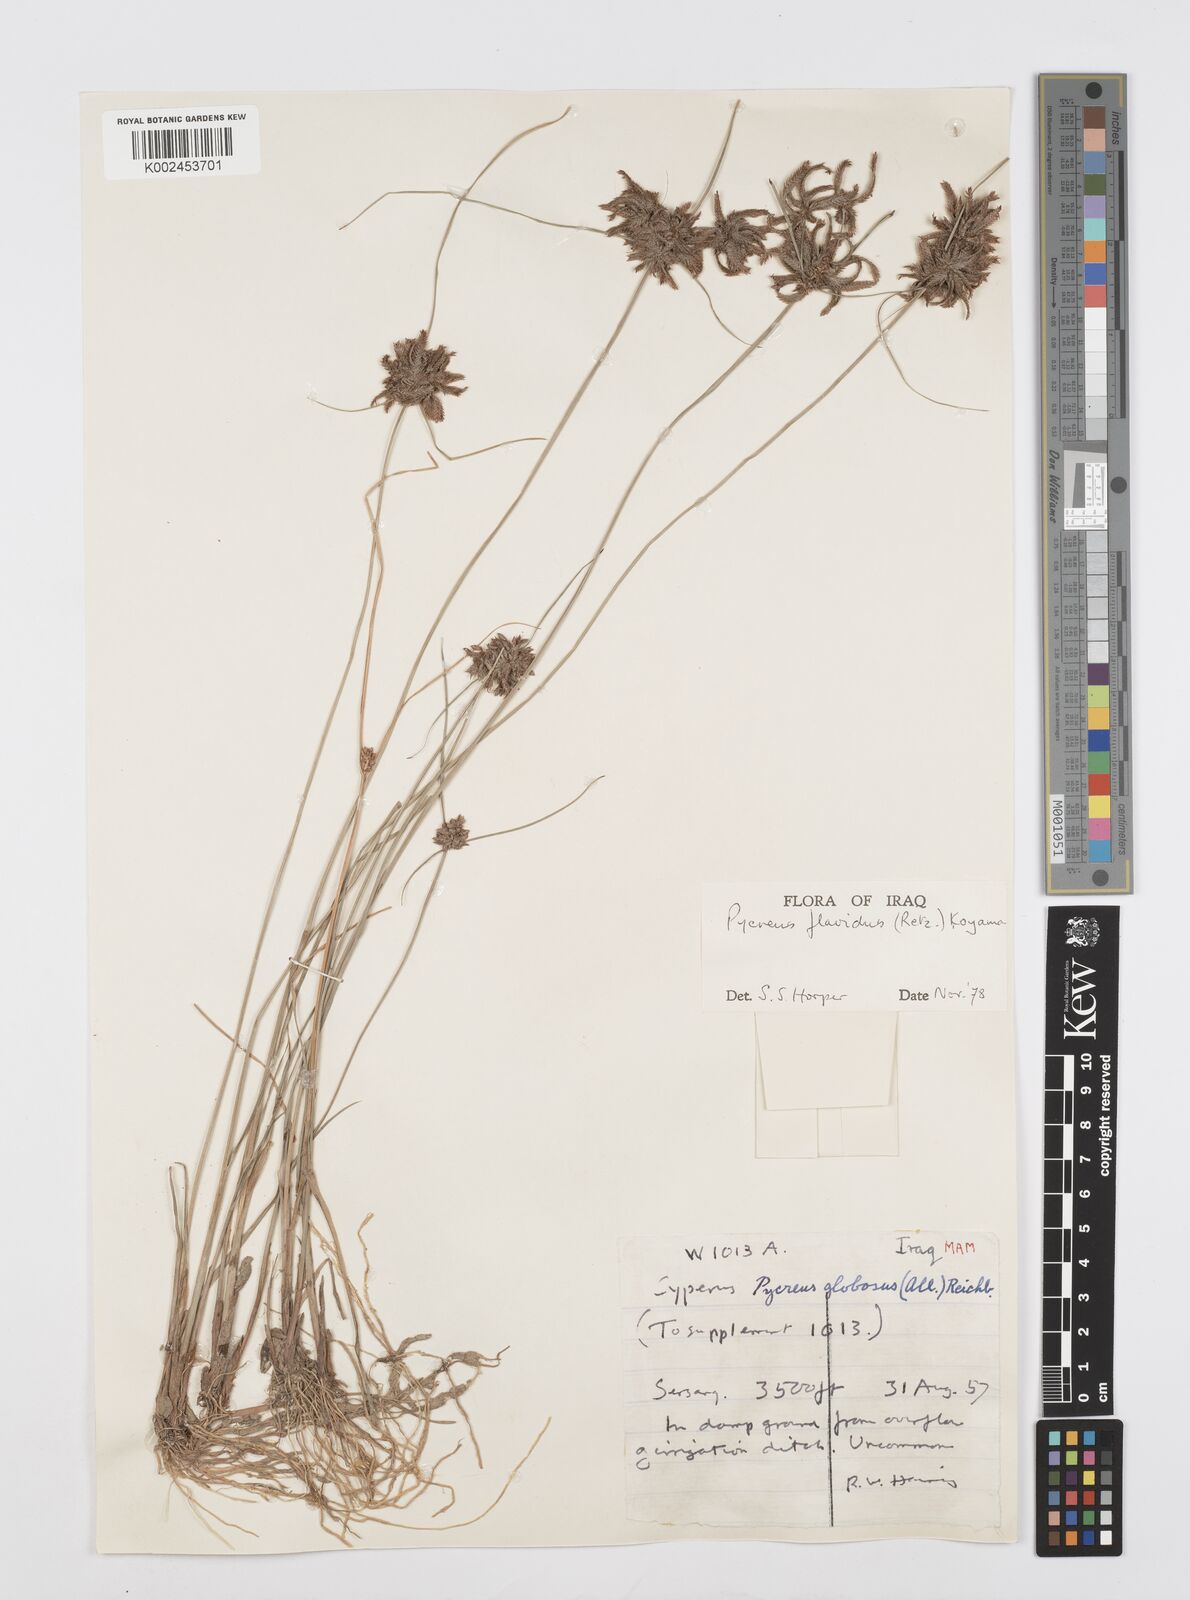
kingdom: Plantae
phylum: Tracheophyta
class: Liliopsida
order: Poales
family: Cyperaceae
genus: Cyperus
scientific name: Cyperus flavidus
